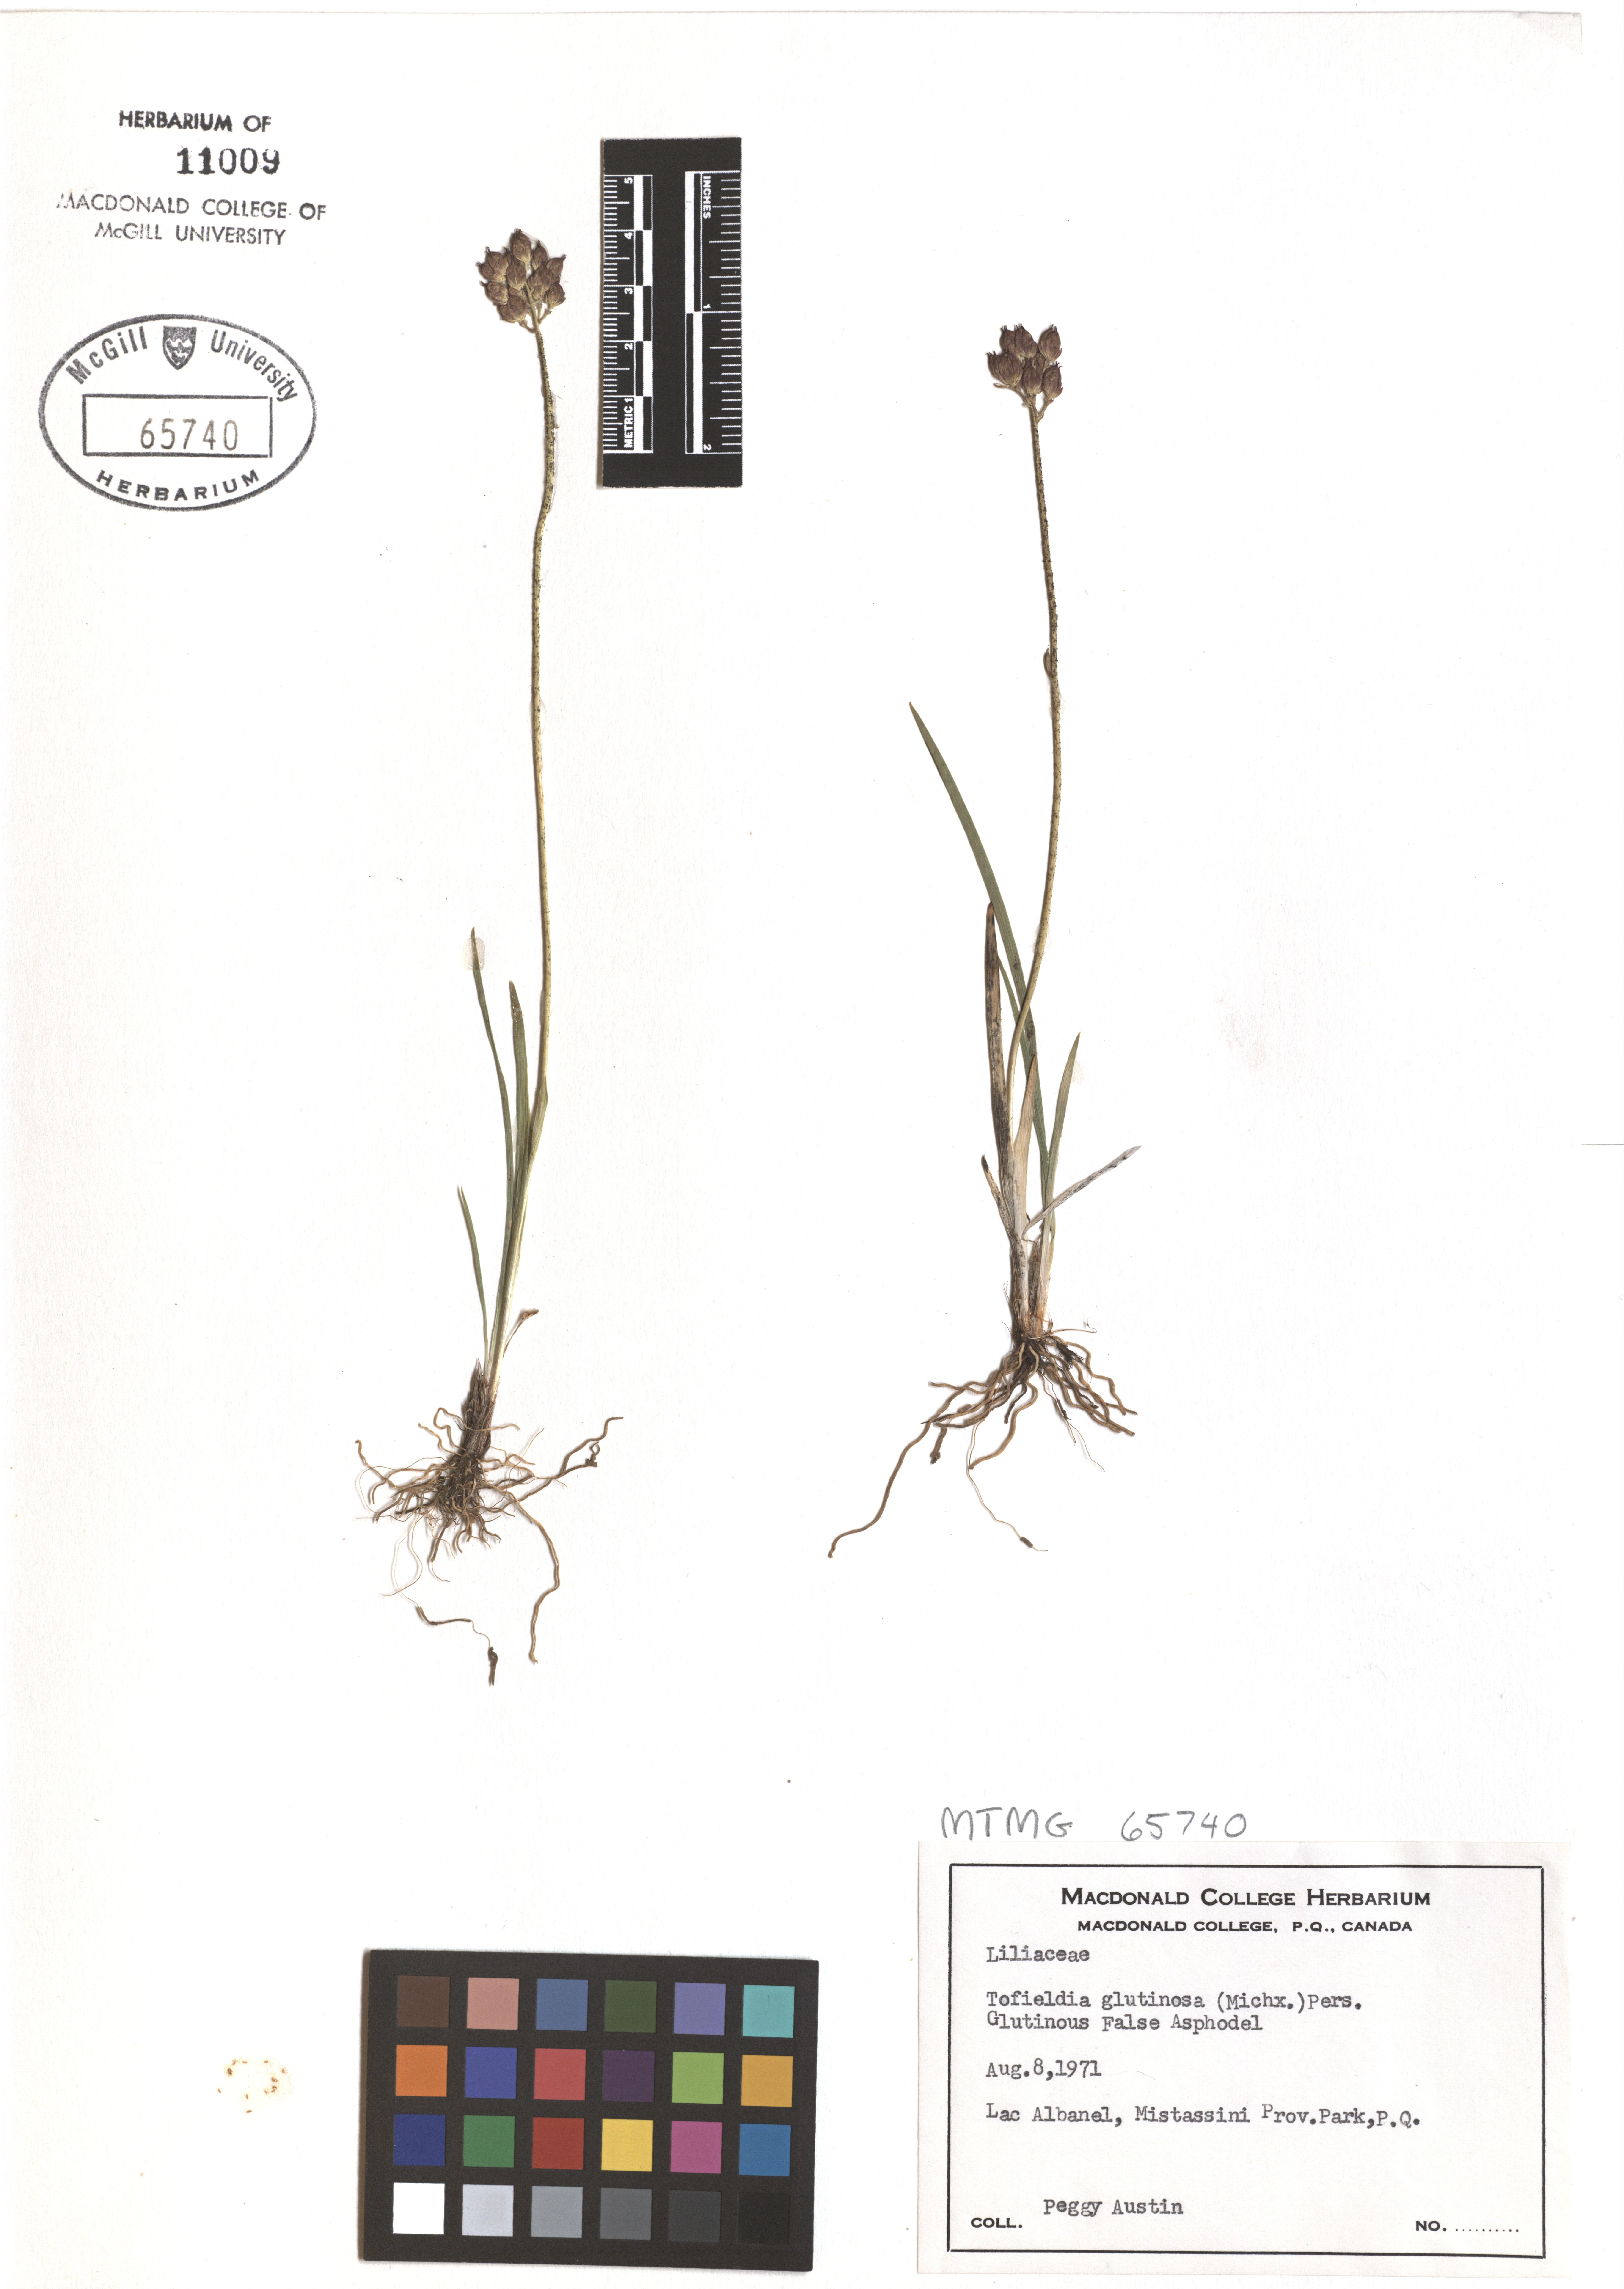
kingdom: Plantae
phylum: Tracheophyta
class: Liliopsida
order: Alismatales
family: Tofieldiaceae
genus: Triantha
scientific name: Triantha glutinosa
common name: Glutinous tofieldia
